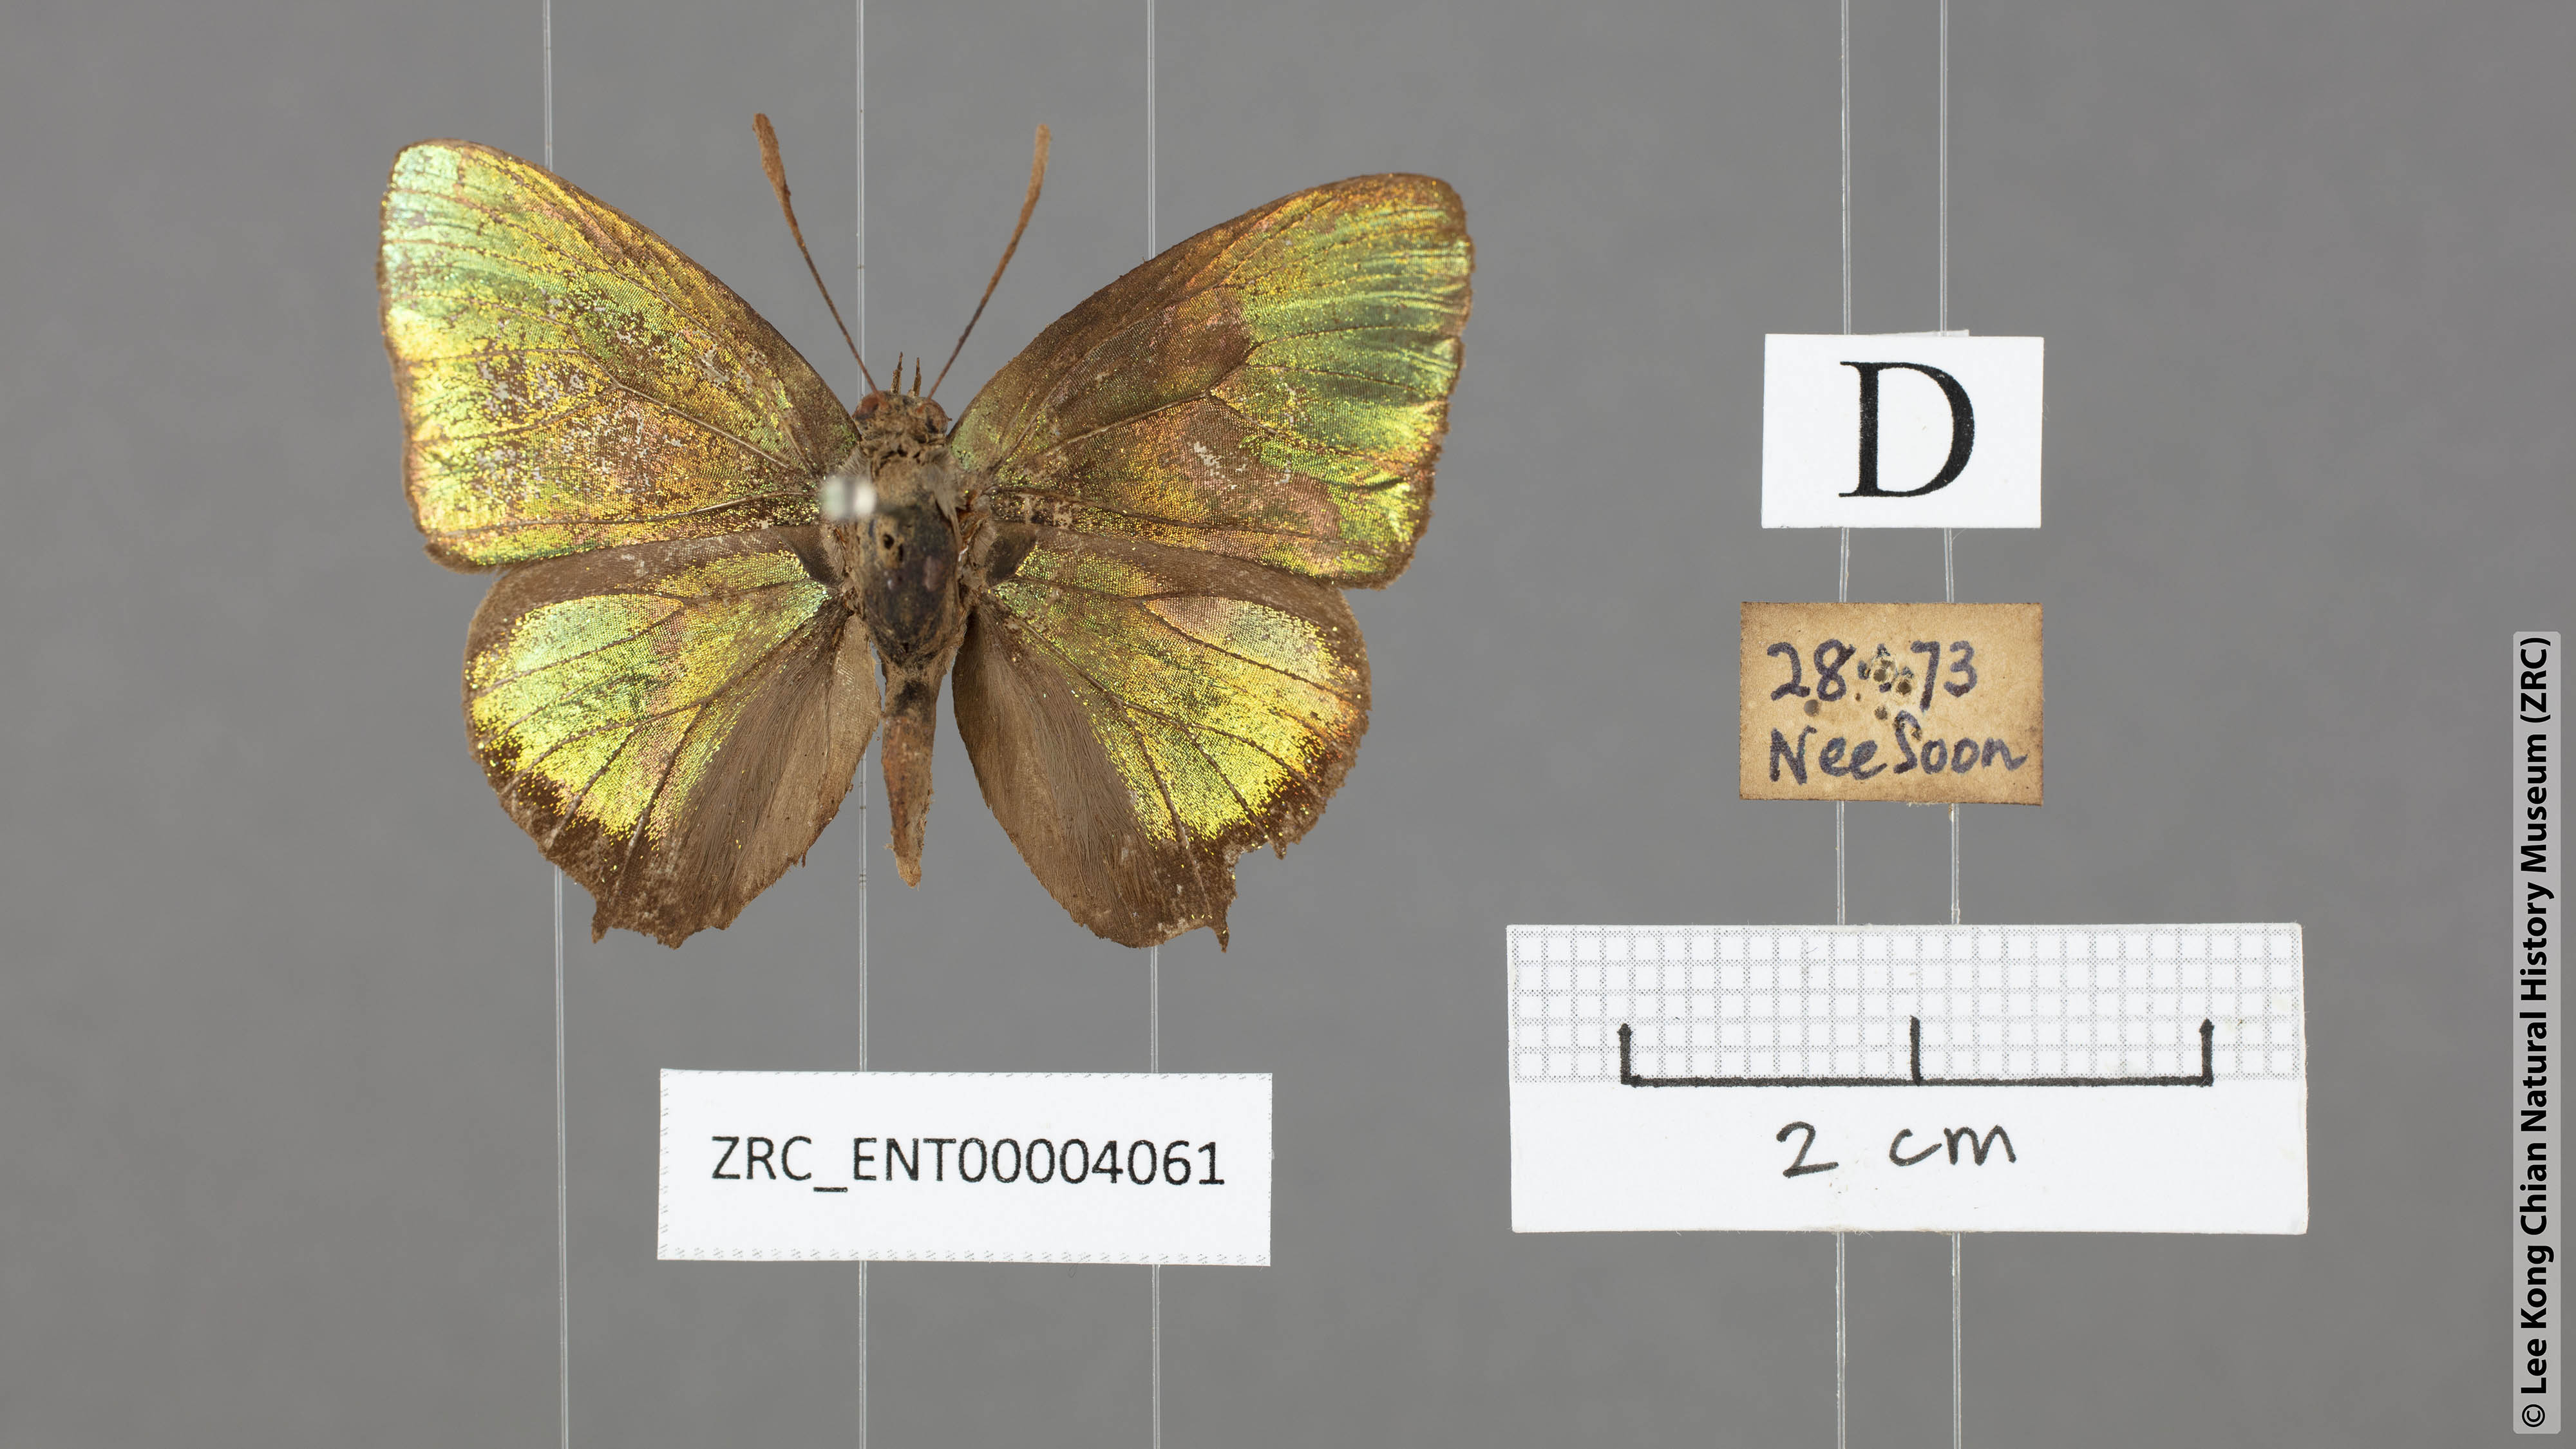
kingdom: Animalia
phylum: Arthropoda
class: Insecta
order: Lepidoptera
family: Lycaenidae
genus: Arhopala
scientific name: Arhopala trogon
